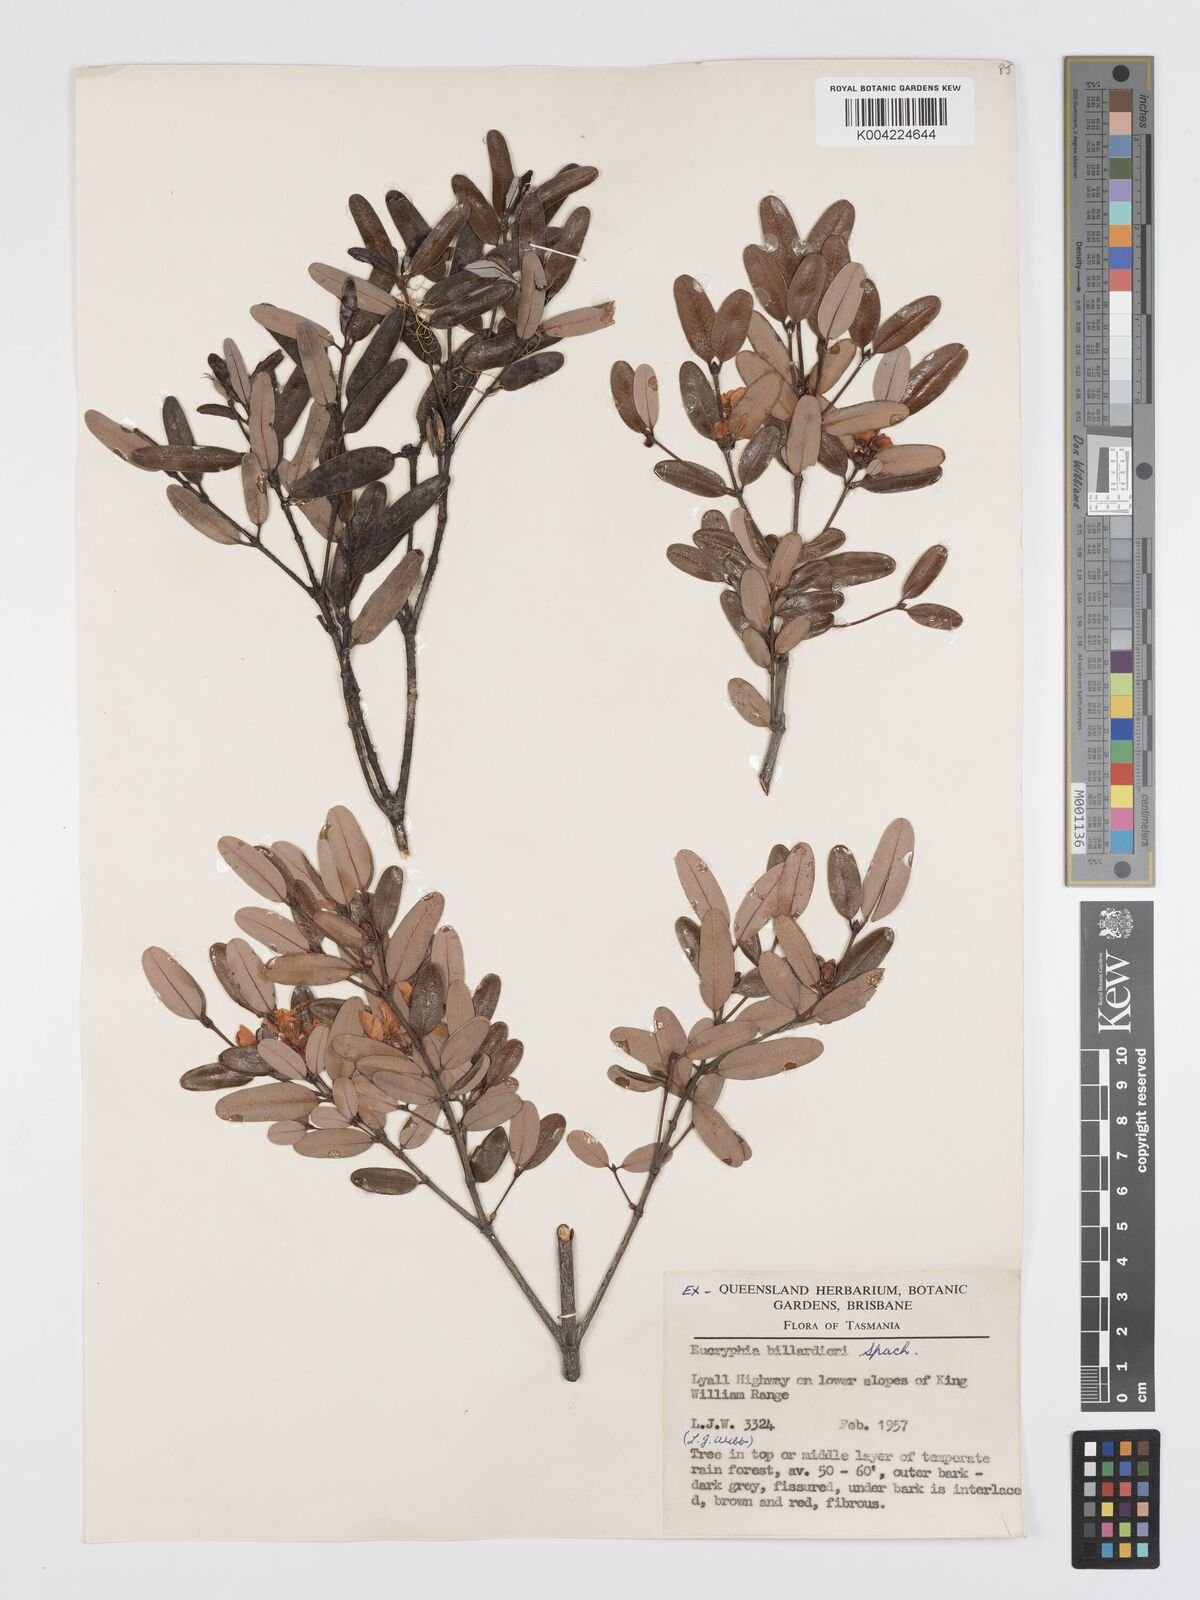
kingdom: Plantae
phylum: Tracheophyta
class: Magnoliopsida
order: Oxalidales
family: Cunoniaceae
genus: Eucryphia
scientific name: Eucryphia lucida
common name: Leatherwood
